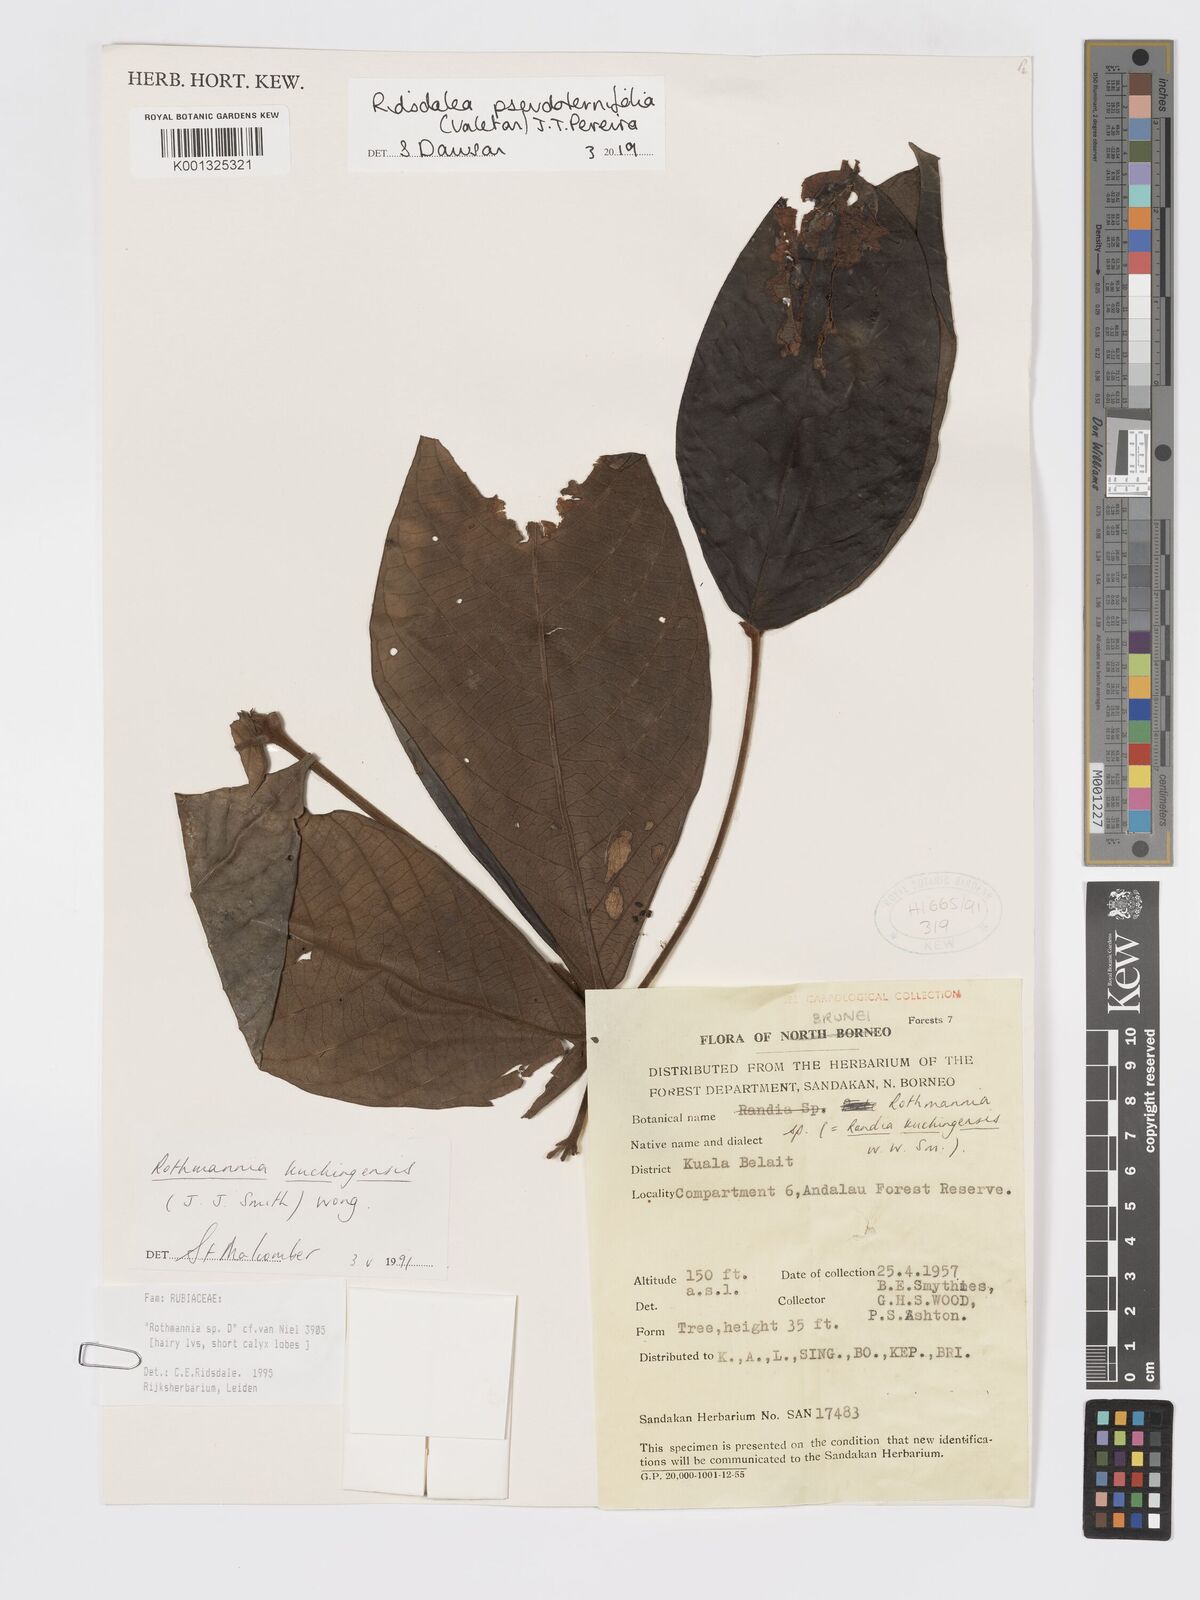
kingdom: Plantae
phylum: Tracheophyta
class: Magnoliopsida
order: Gentianales
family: Rubiaceae
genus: Ridsdalea
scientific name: Ridsdalea pseudoternifolia
